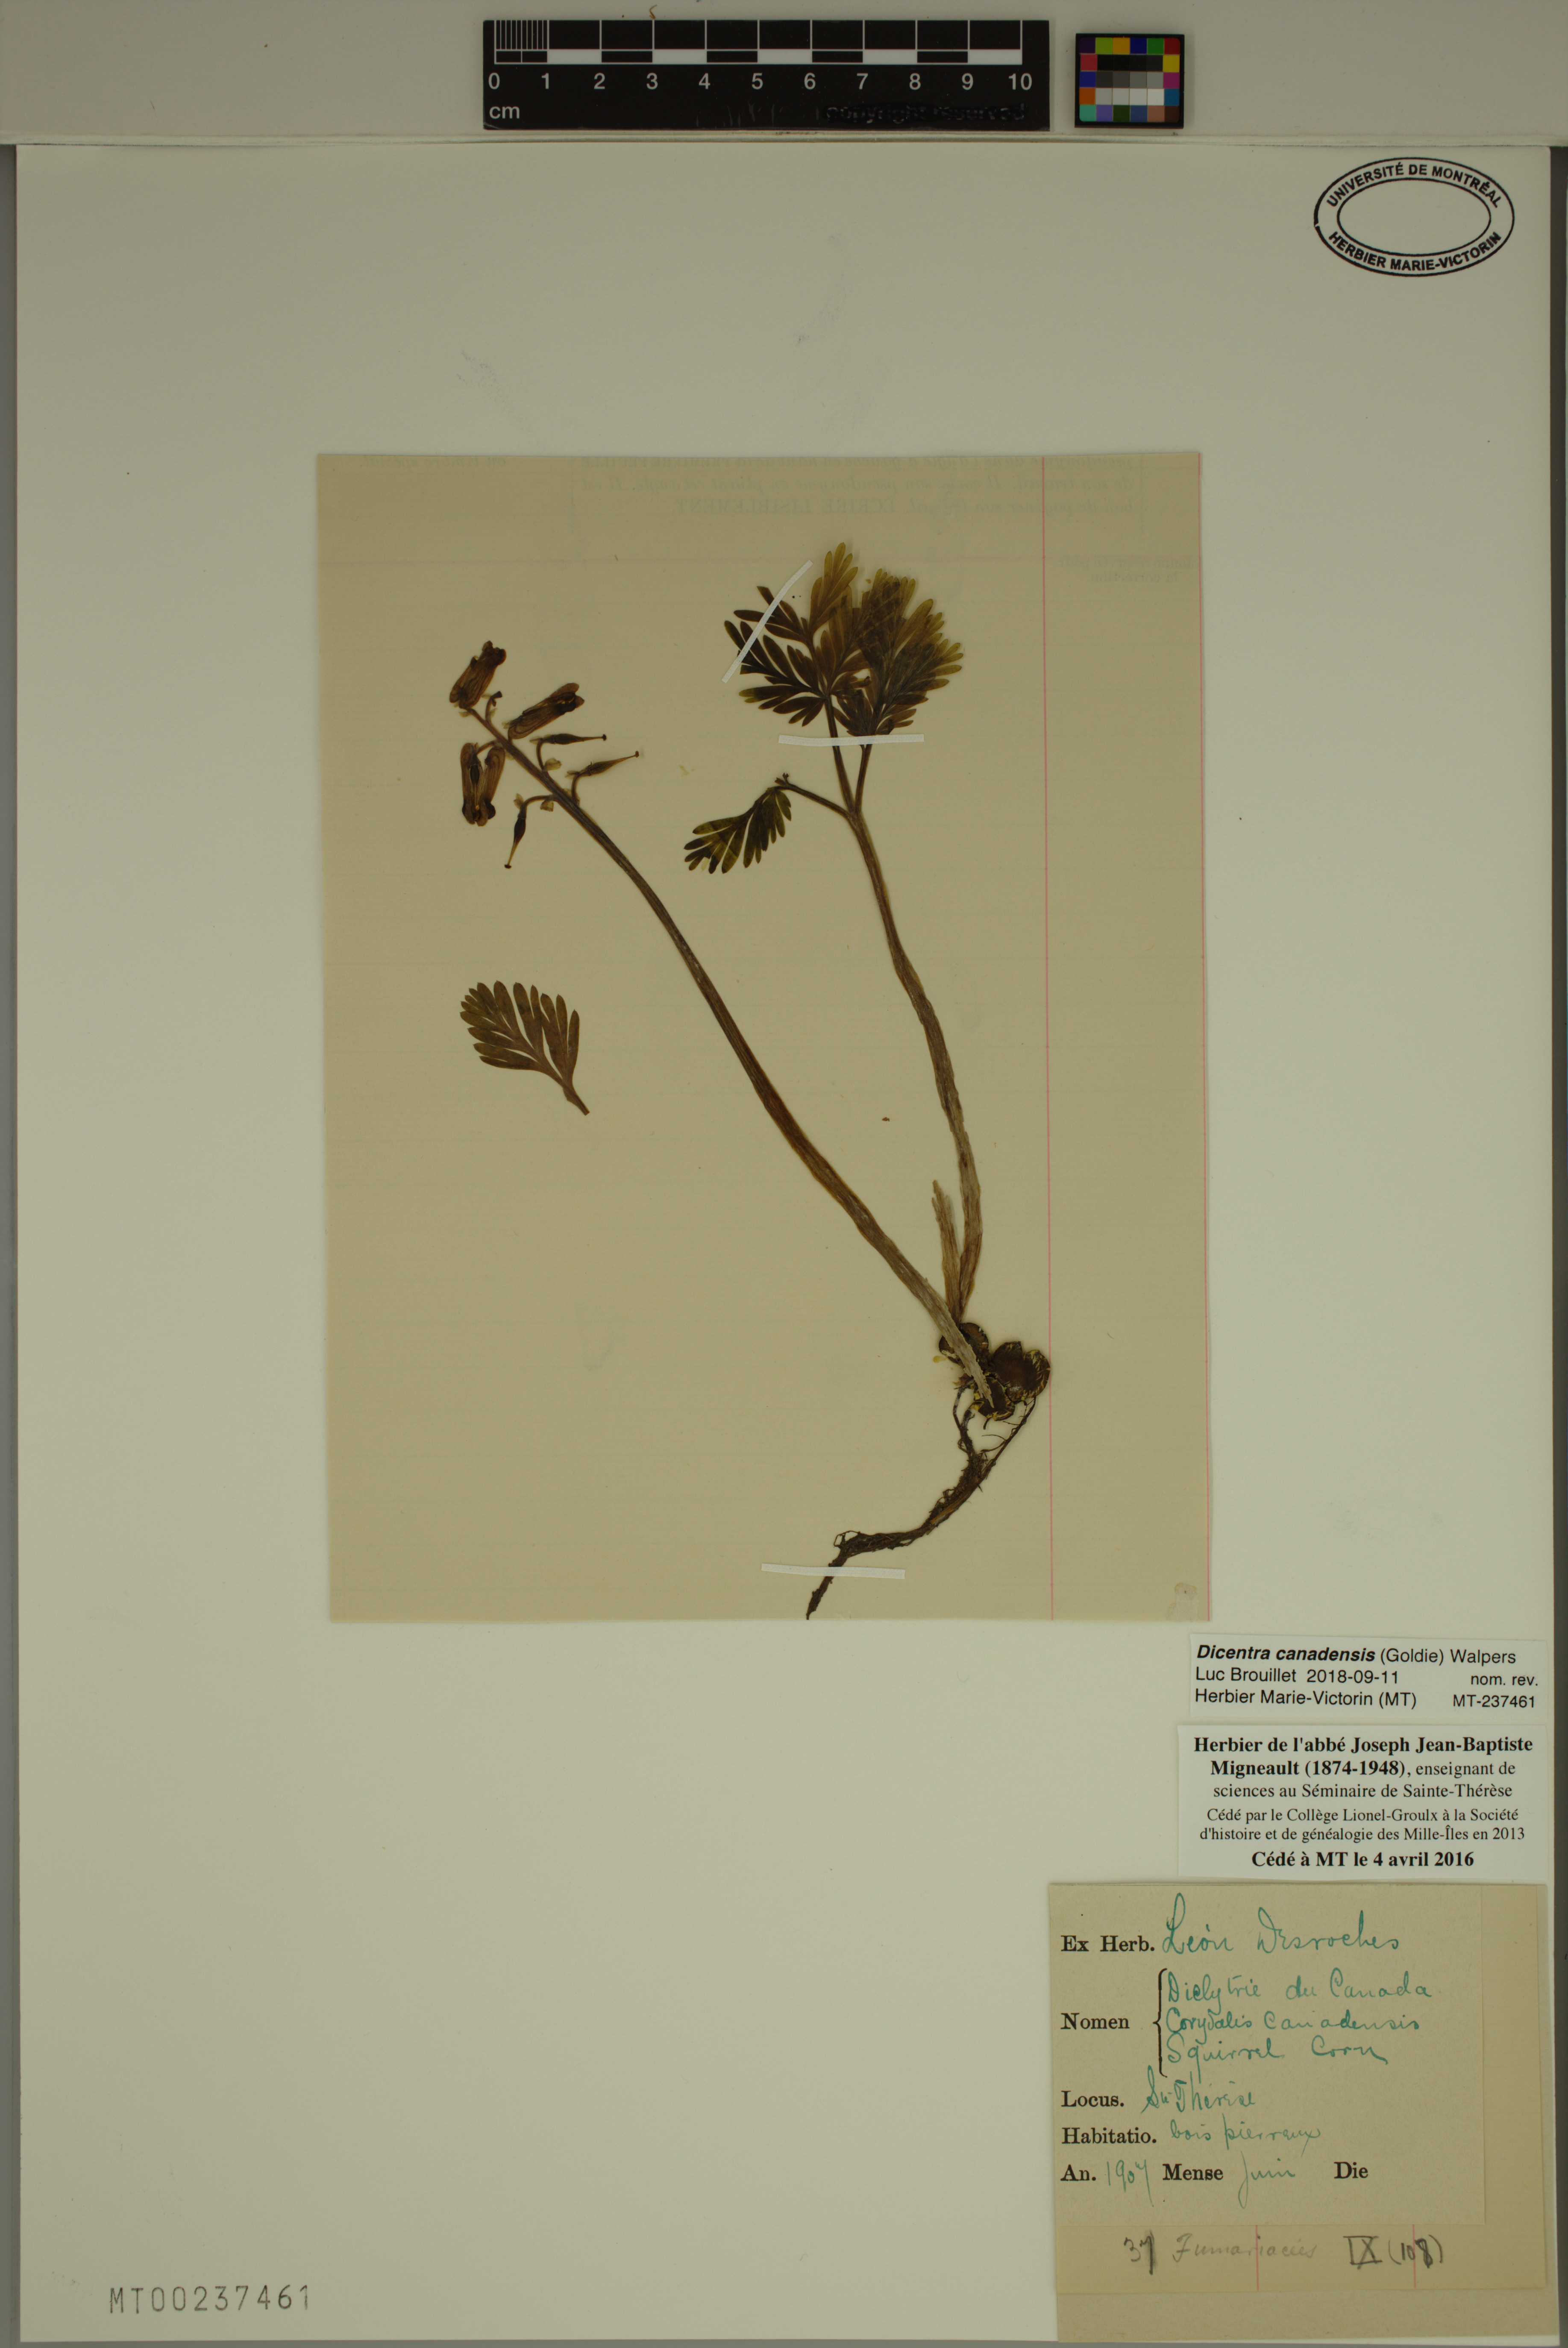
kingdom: Plantae
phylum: Tracheophyta
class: Magnoliopsida
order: Ranunculales
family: Papaveraceae
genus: Dicentra
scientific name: Dicentra canadensis
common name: Squirrel-corn
